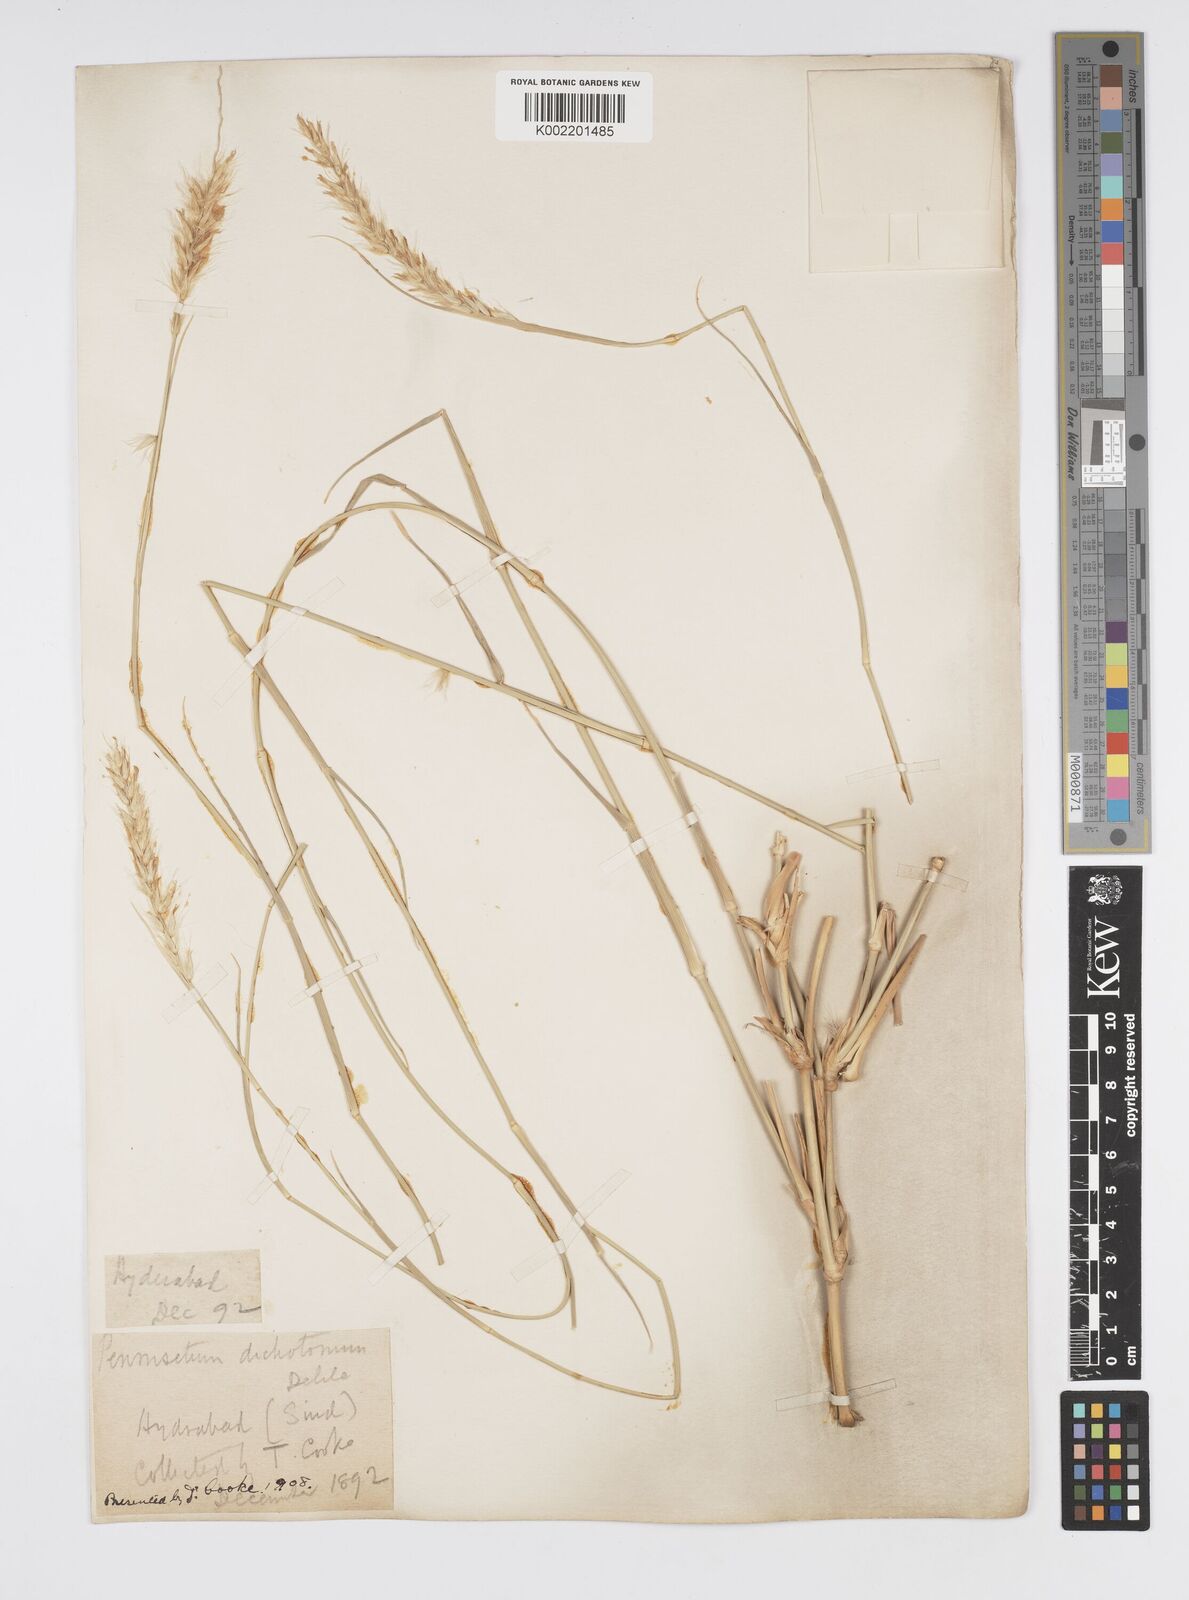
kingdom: Plantae
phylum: Tracheophyta
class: Liliopsida
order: Poales
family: Poaceae
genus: Cenchrus
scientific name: Cenchrus divisus
